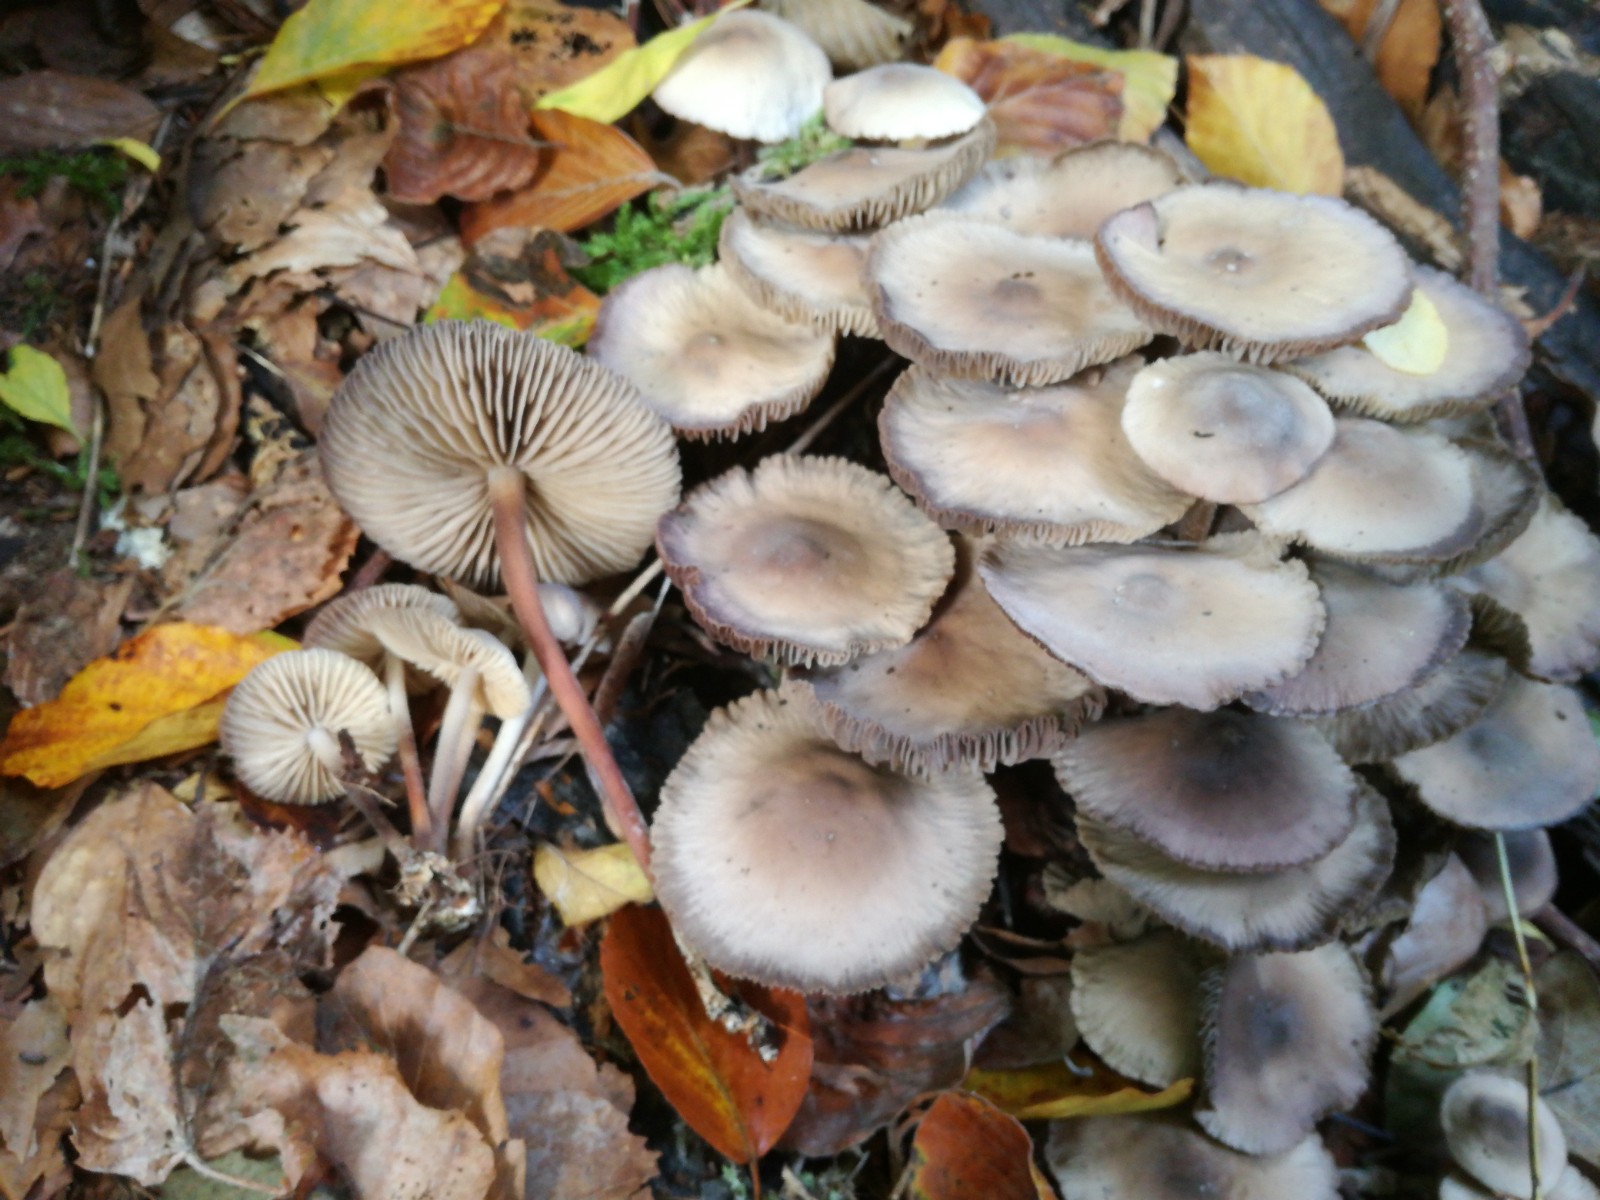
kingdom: Fungi
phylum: Basidiomycota
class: Agaricomycetes
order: Agaricales
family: Marasmiaceae
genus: Marasmius
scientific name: Marasmius wynneae
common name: hvælvet bruskhat
